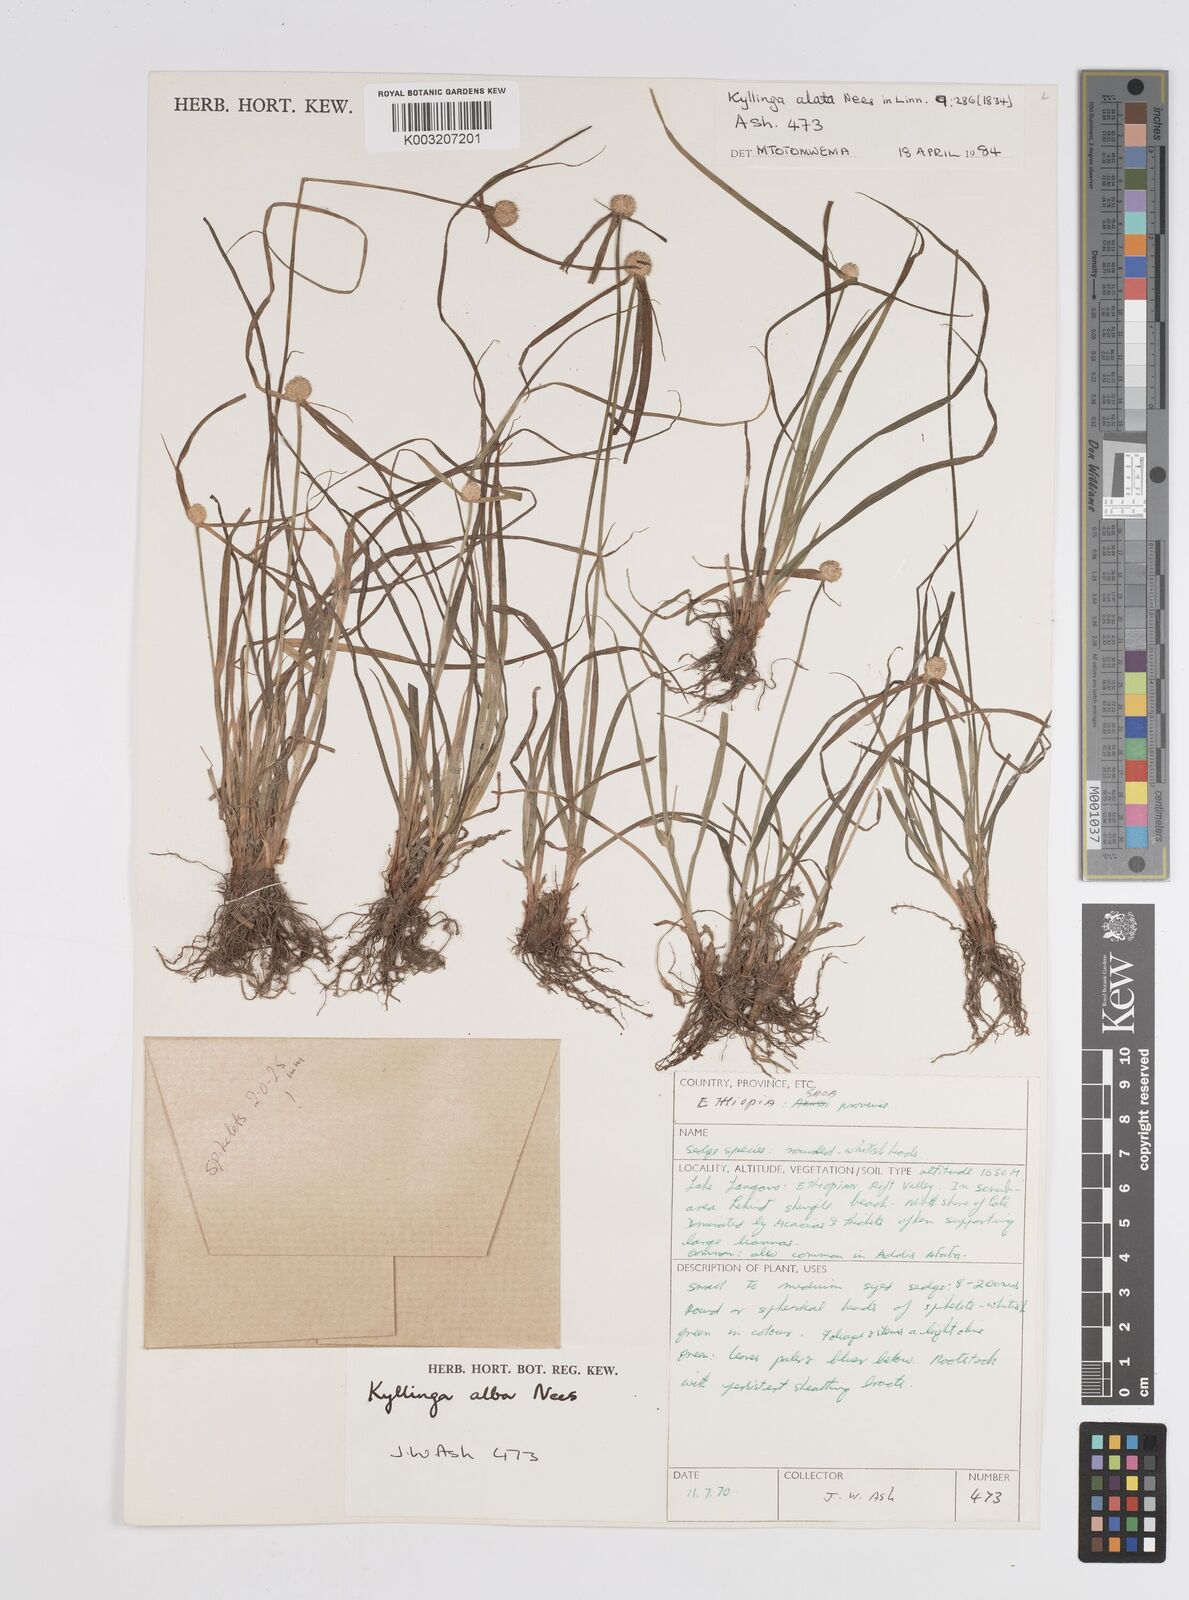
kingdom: Plantae
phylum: Tracheophyta
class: Liliopsida
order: Poales
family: Cyperaceae
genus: Cyperus
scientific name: Cyperus controversus
